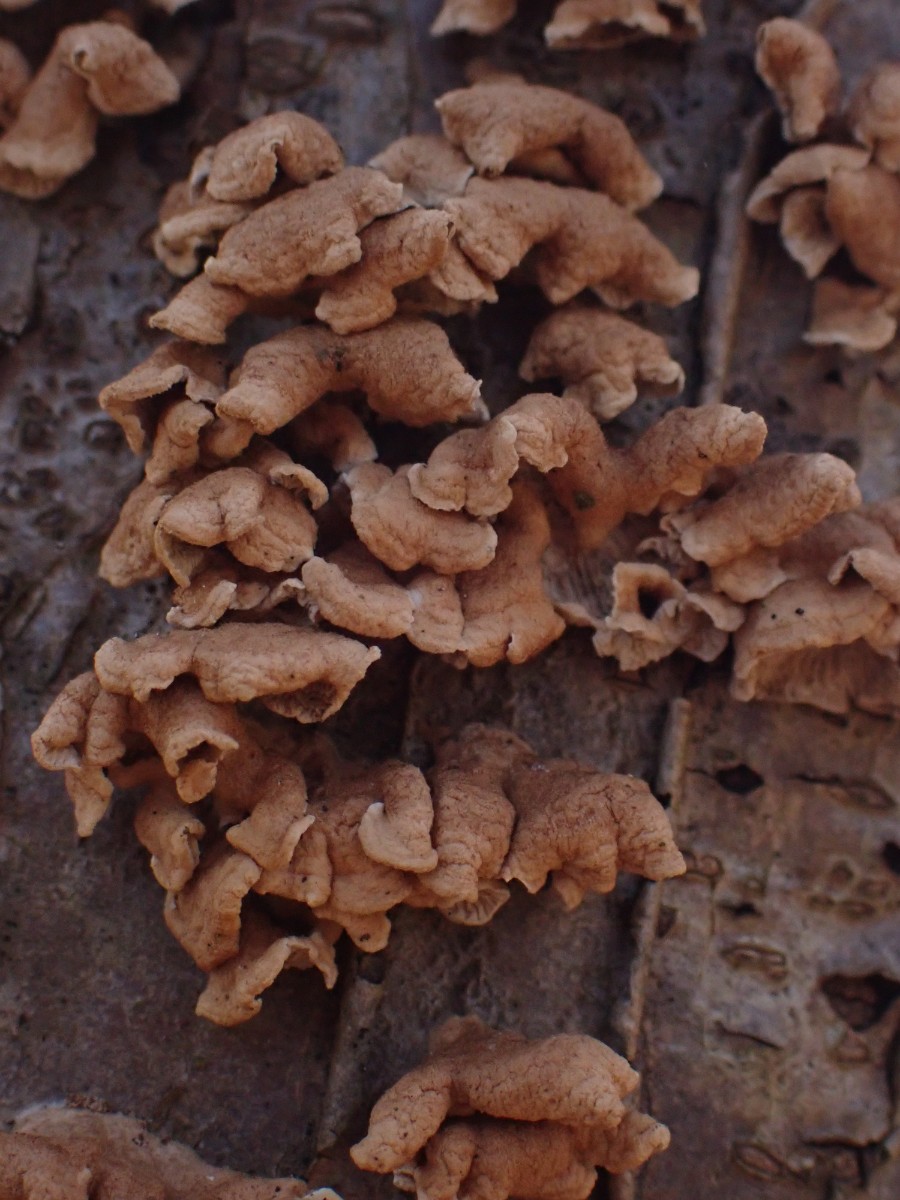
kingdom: Fungi
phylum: Basidiomycota
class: Agaricomycetes
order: Amylocorticiales
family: Amylocorticiaceae
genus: Plicaturopsis
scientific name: Plicaturopsis crispa
